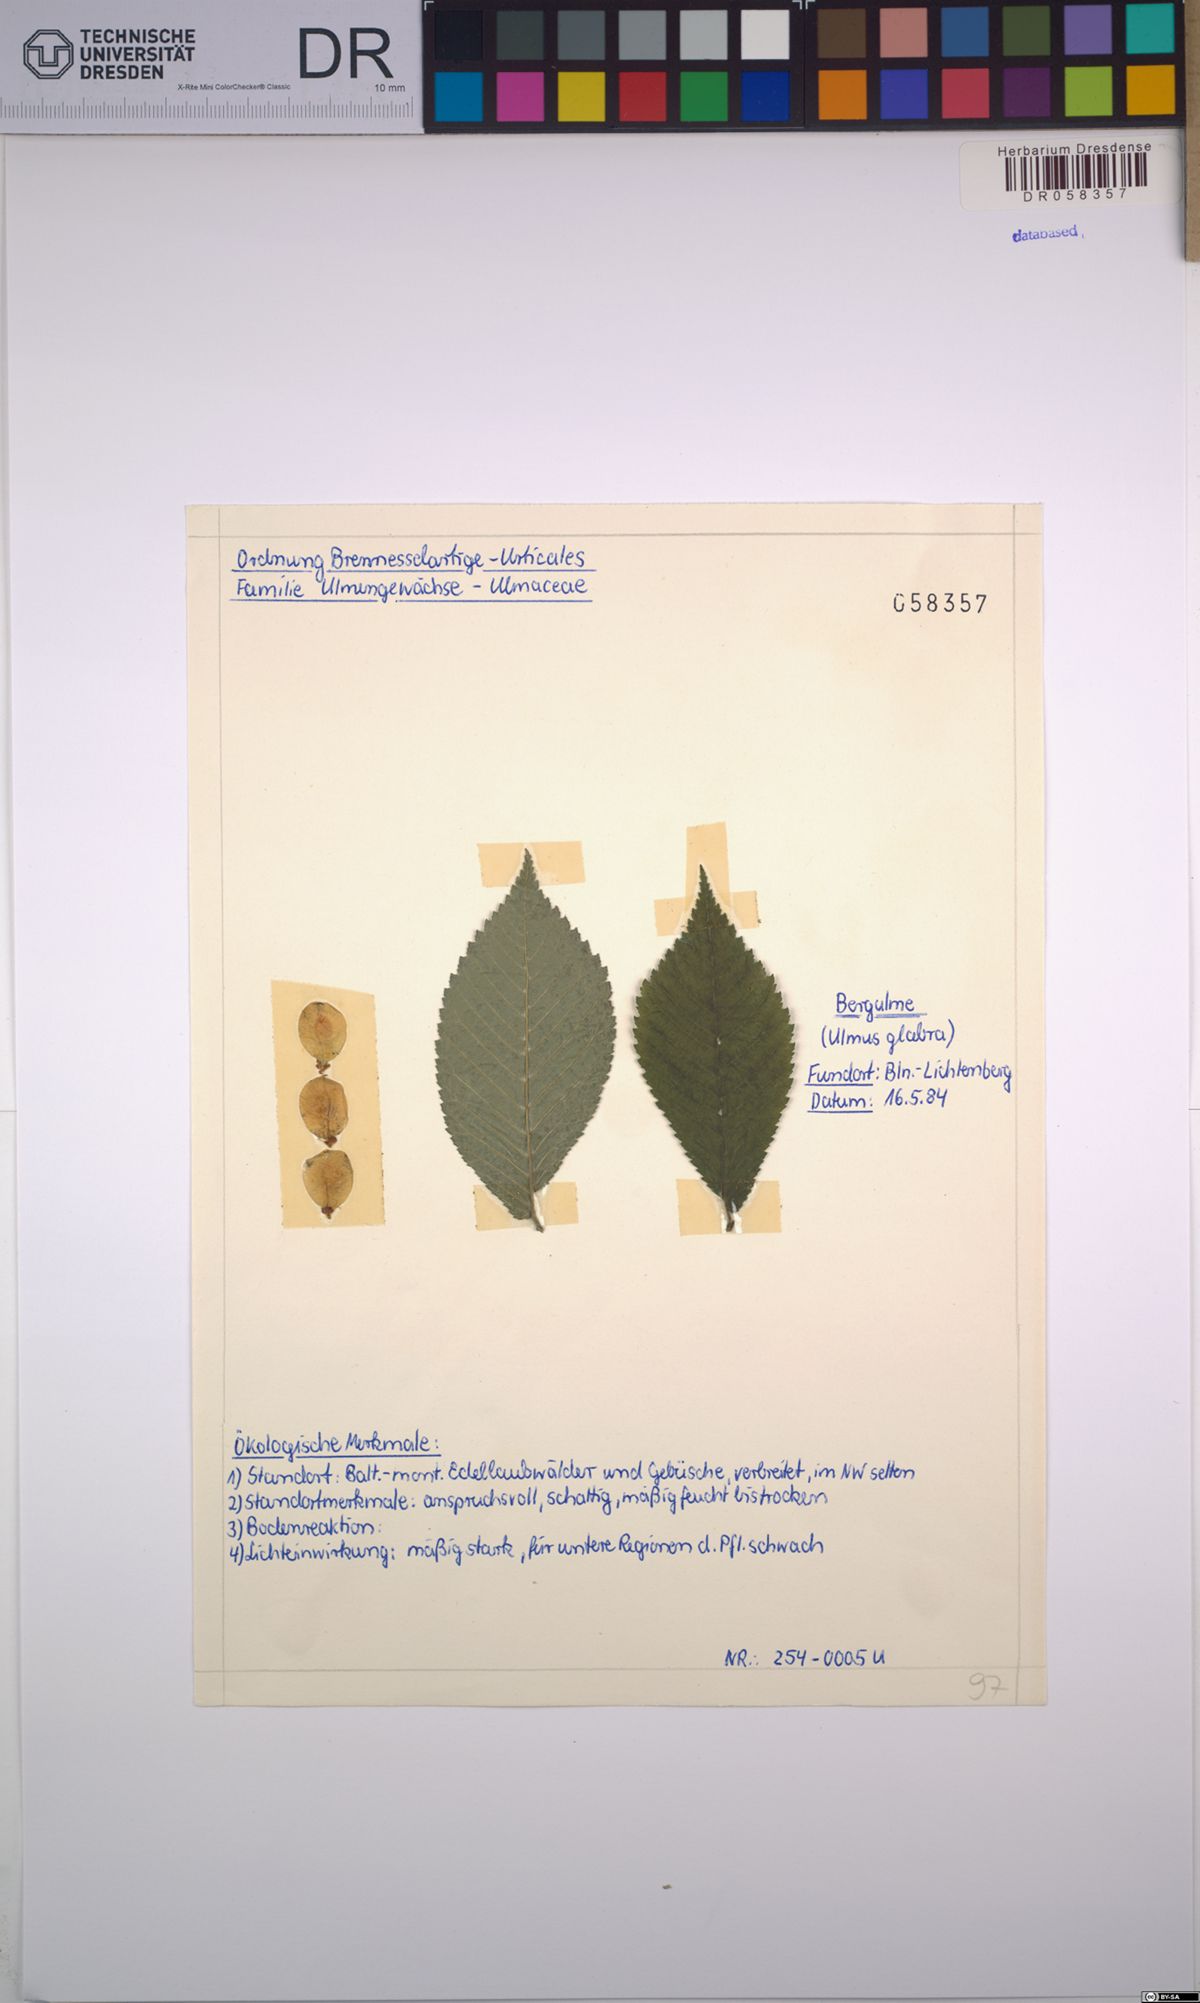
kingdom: Plantae
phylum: Tracheophyta
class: Magnoliopsida
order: Rosales
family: Ulmaceae
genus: Ulmus
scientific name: Ulmus glabra
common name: Wych elm
